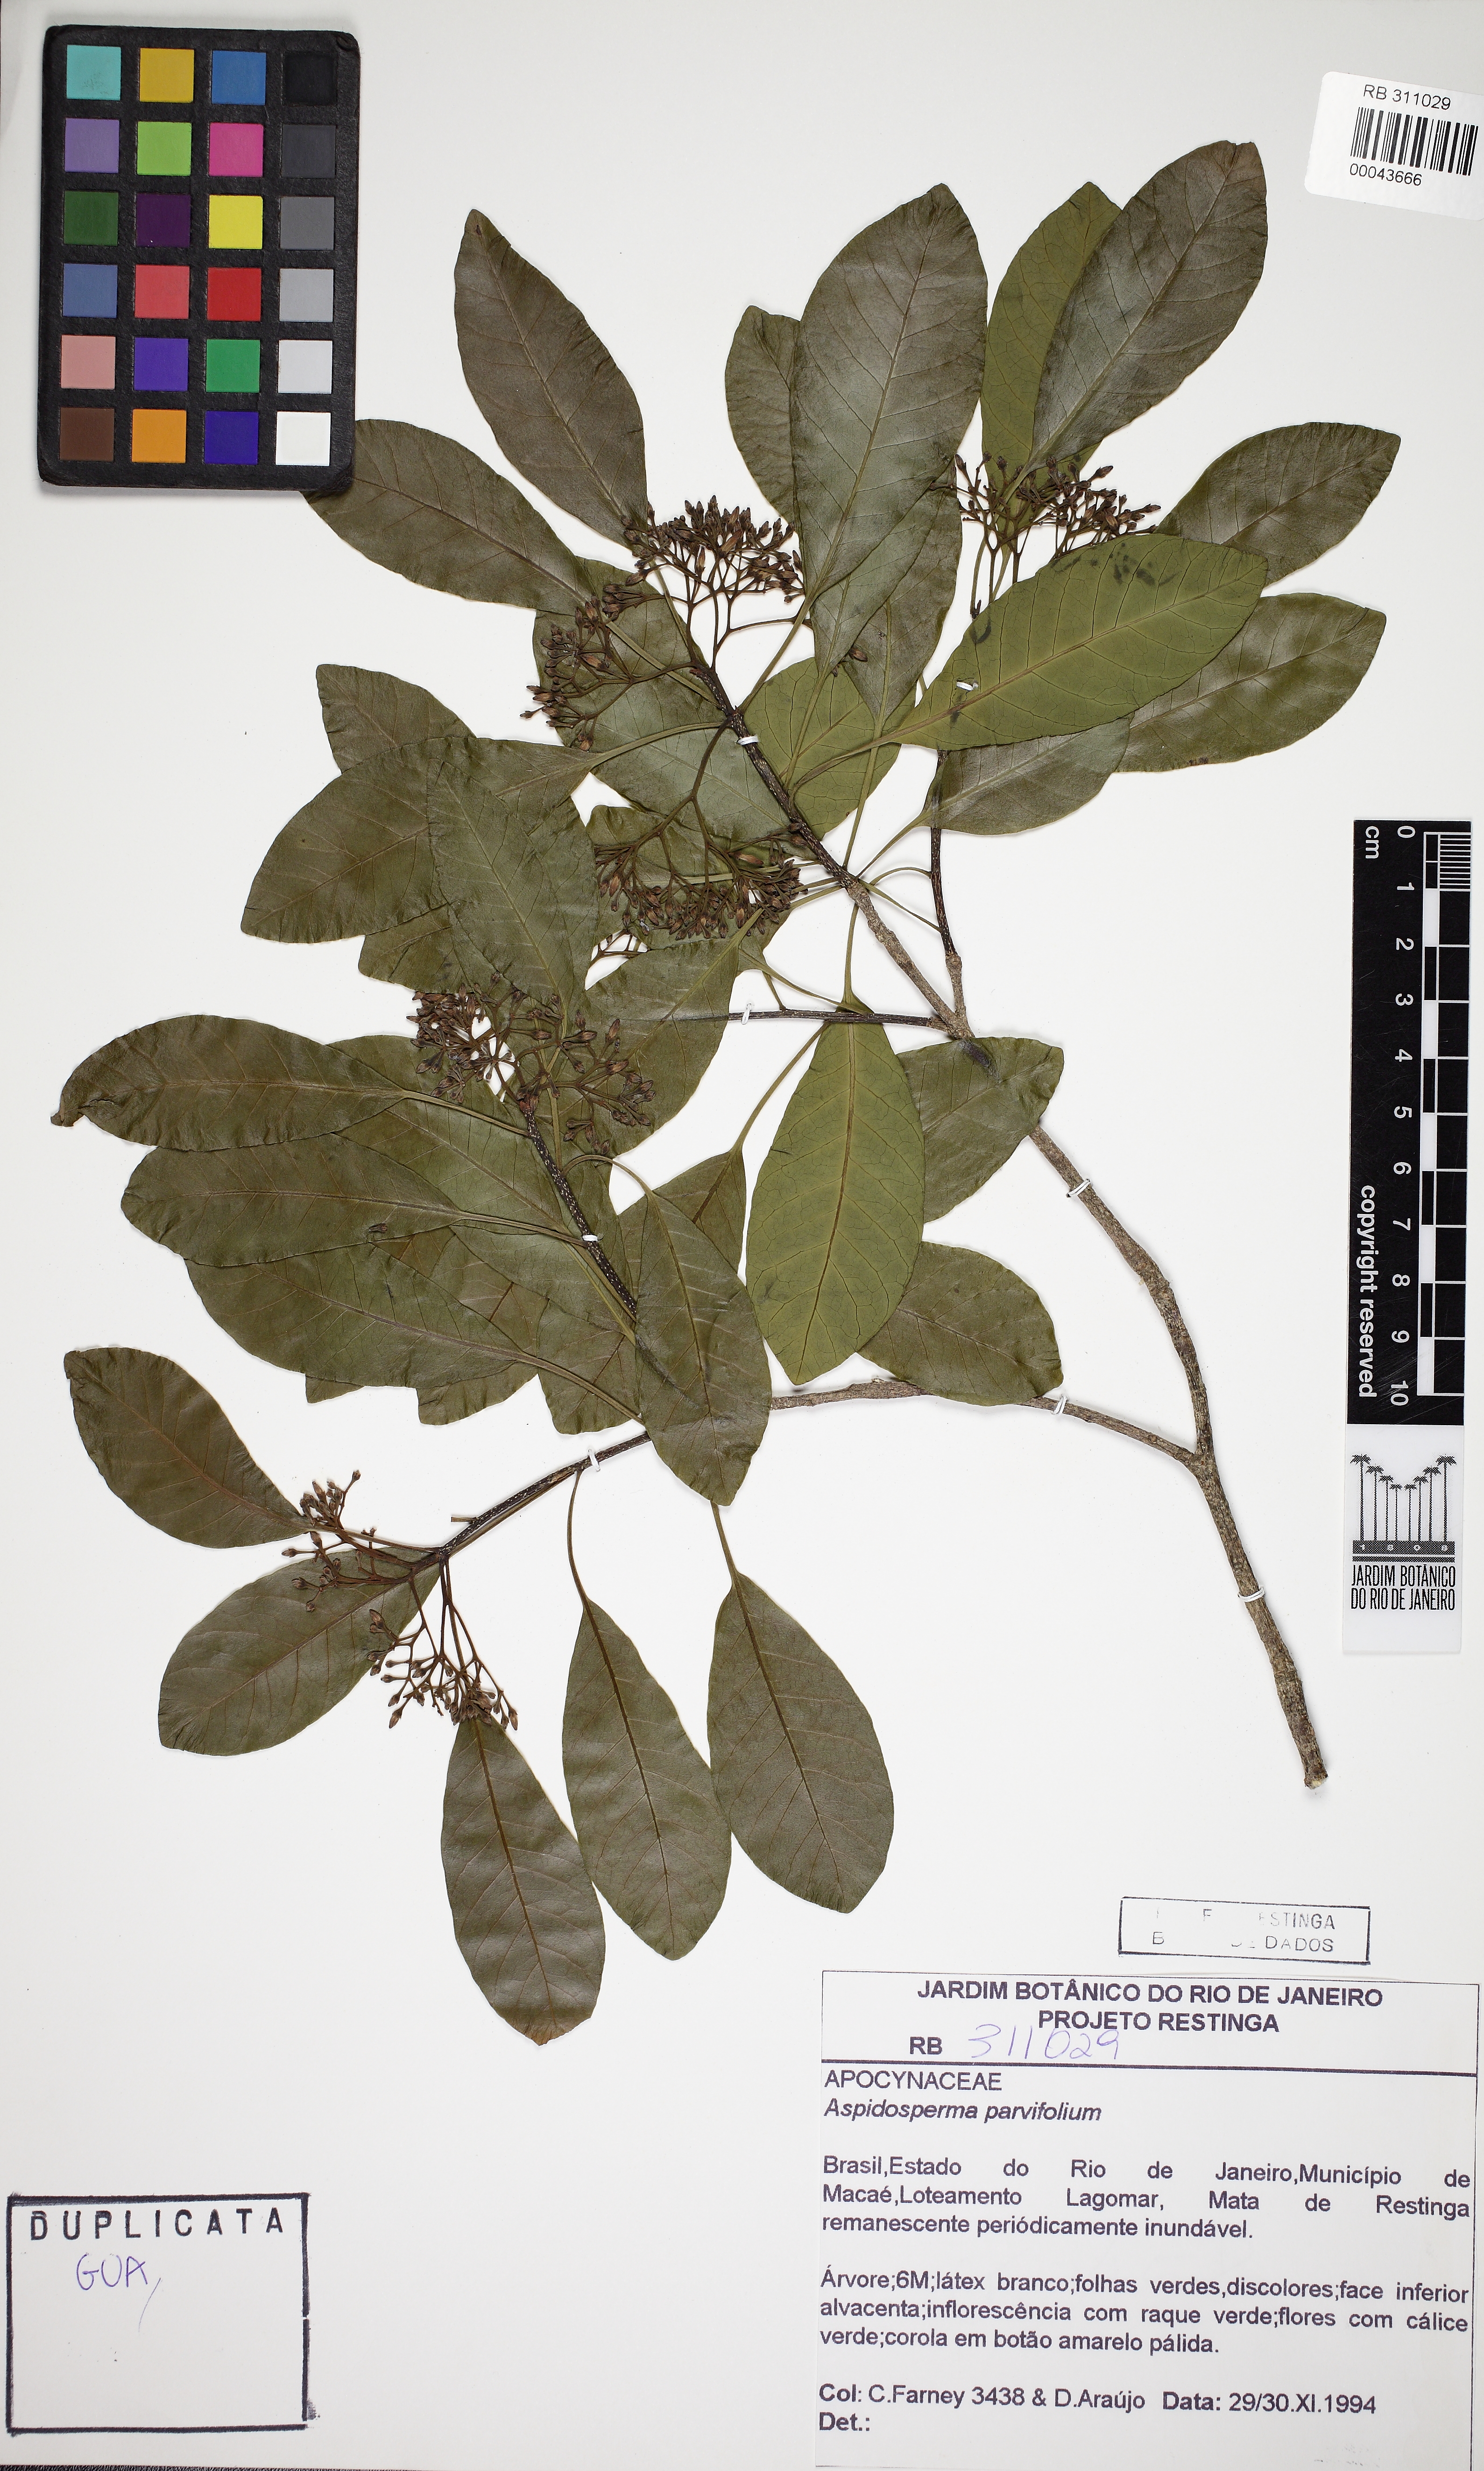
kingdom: Plantae
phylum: Tracheophyta
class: Magnoliopsida
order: Gentianales
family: Apocynaceae
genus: Aspidosperma
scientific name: Aspidosperma pyricollum
